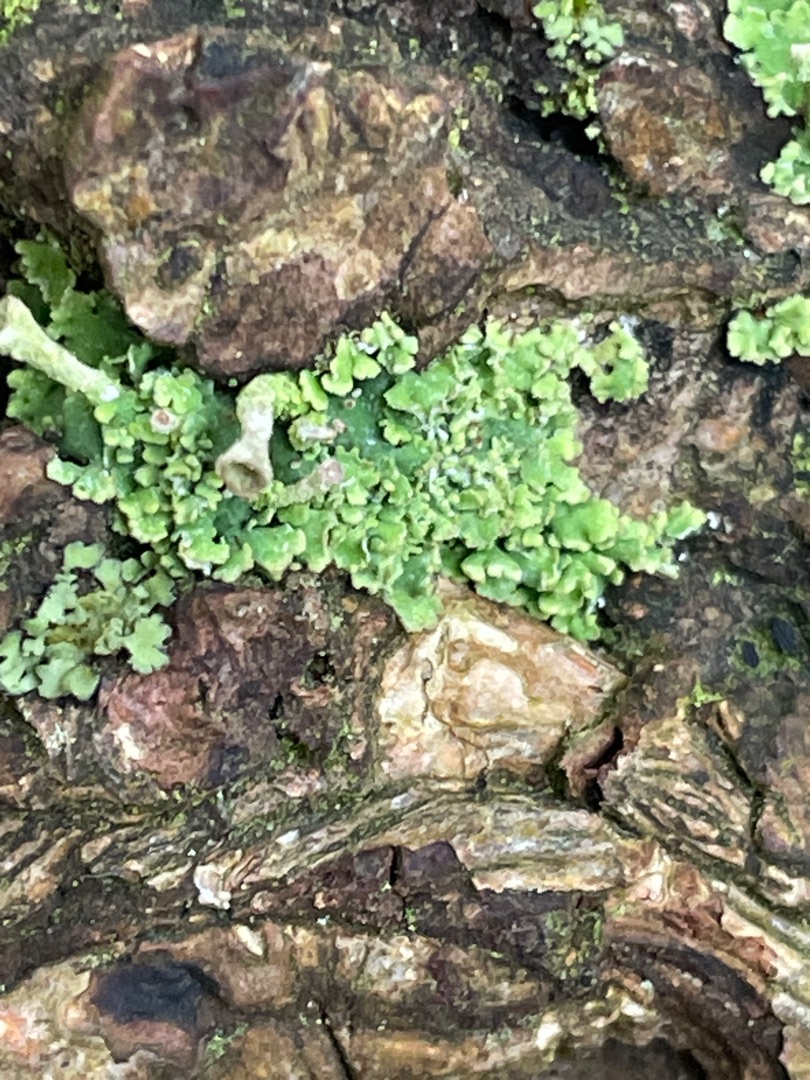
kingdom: Fungi
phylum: Ascomycota
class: Lecanoromycetes
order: Lecanorales
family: Cladoniaceae
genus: Cladonia
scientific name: Cladonia
